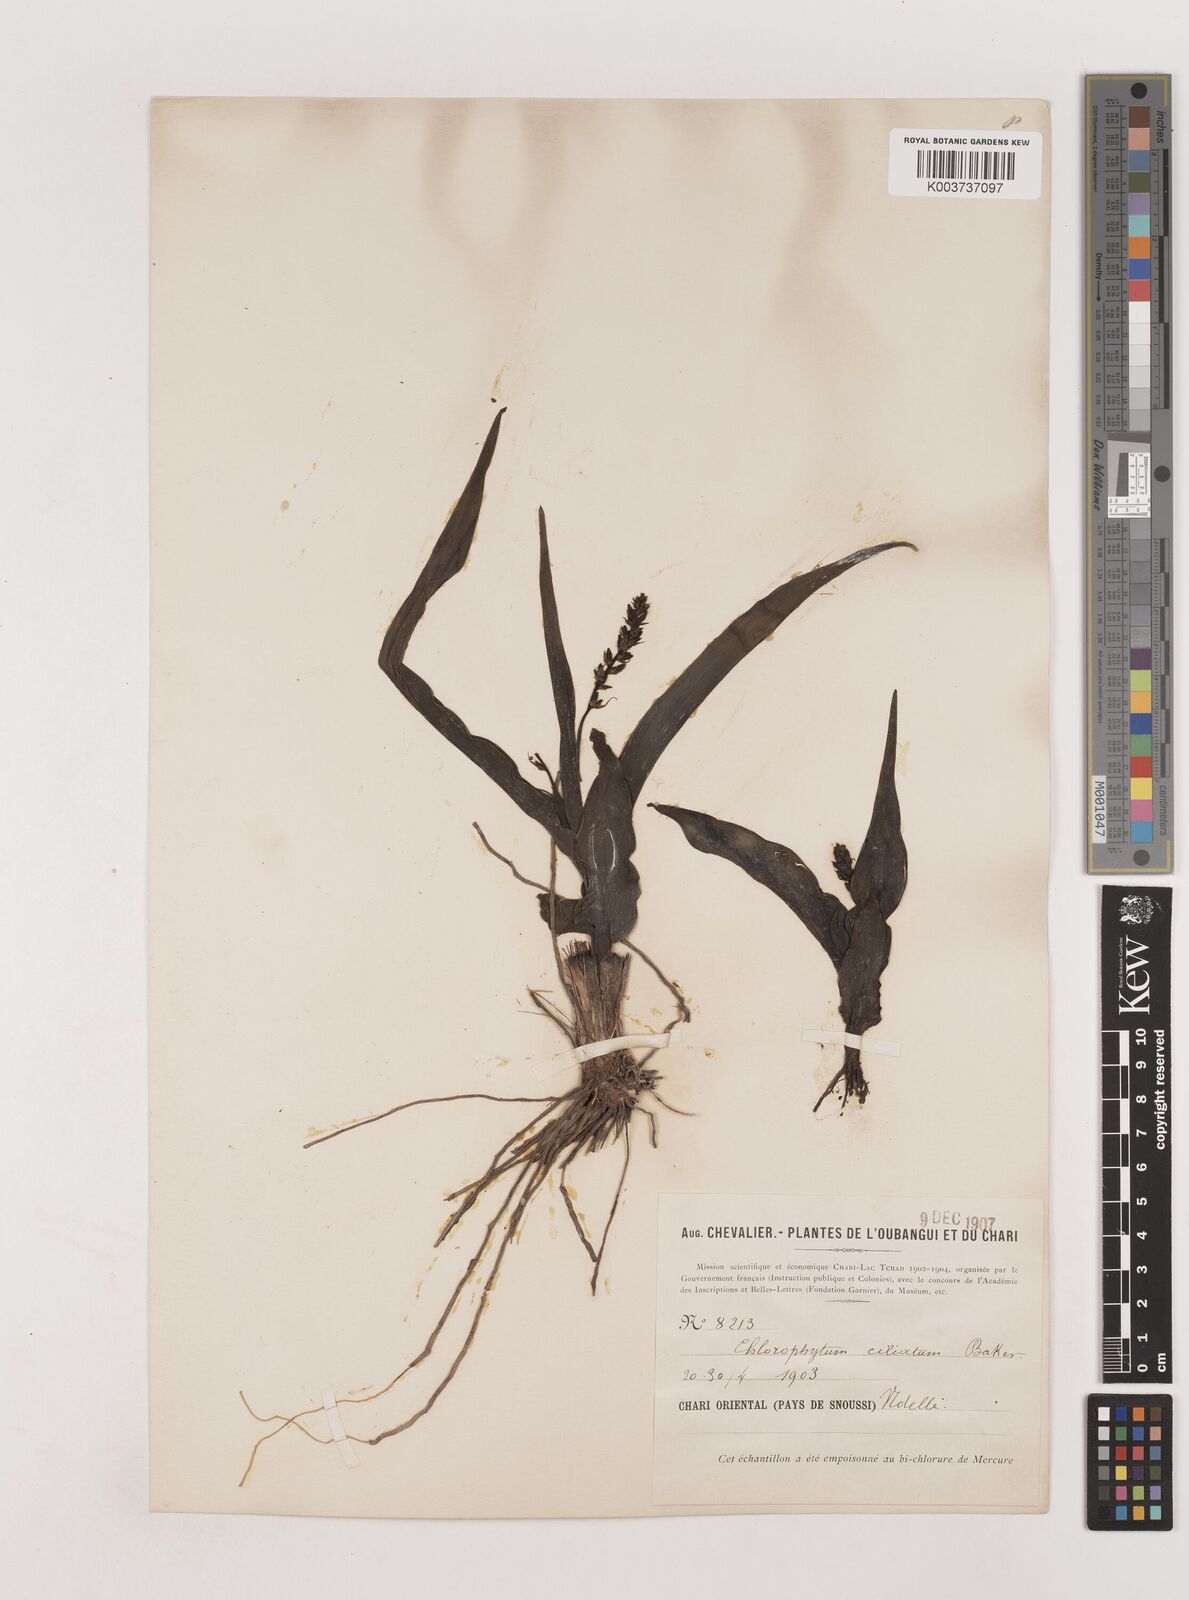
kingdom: Plantae
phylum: Tracheophyta
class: Liliopsida
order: Asparagales
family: Asparagaceae
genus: Chlorophytum
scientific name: Chlorophytum blepharophyllum
